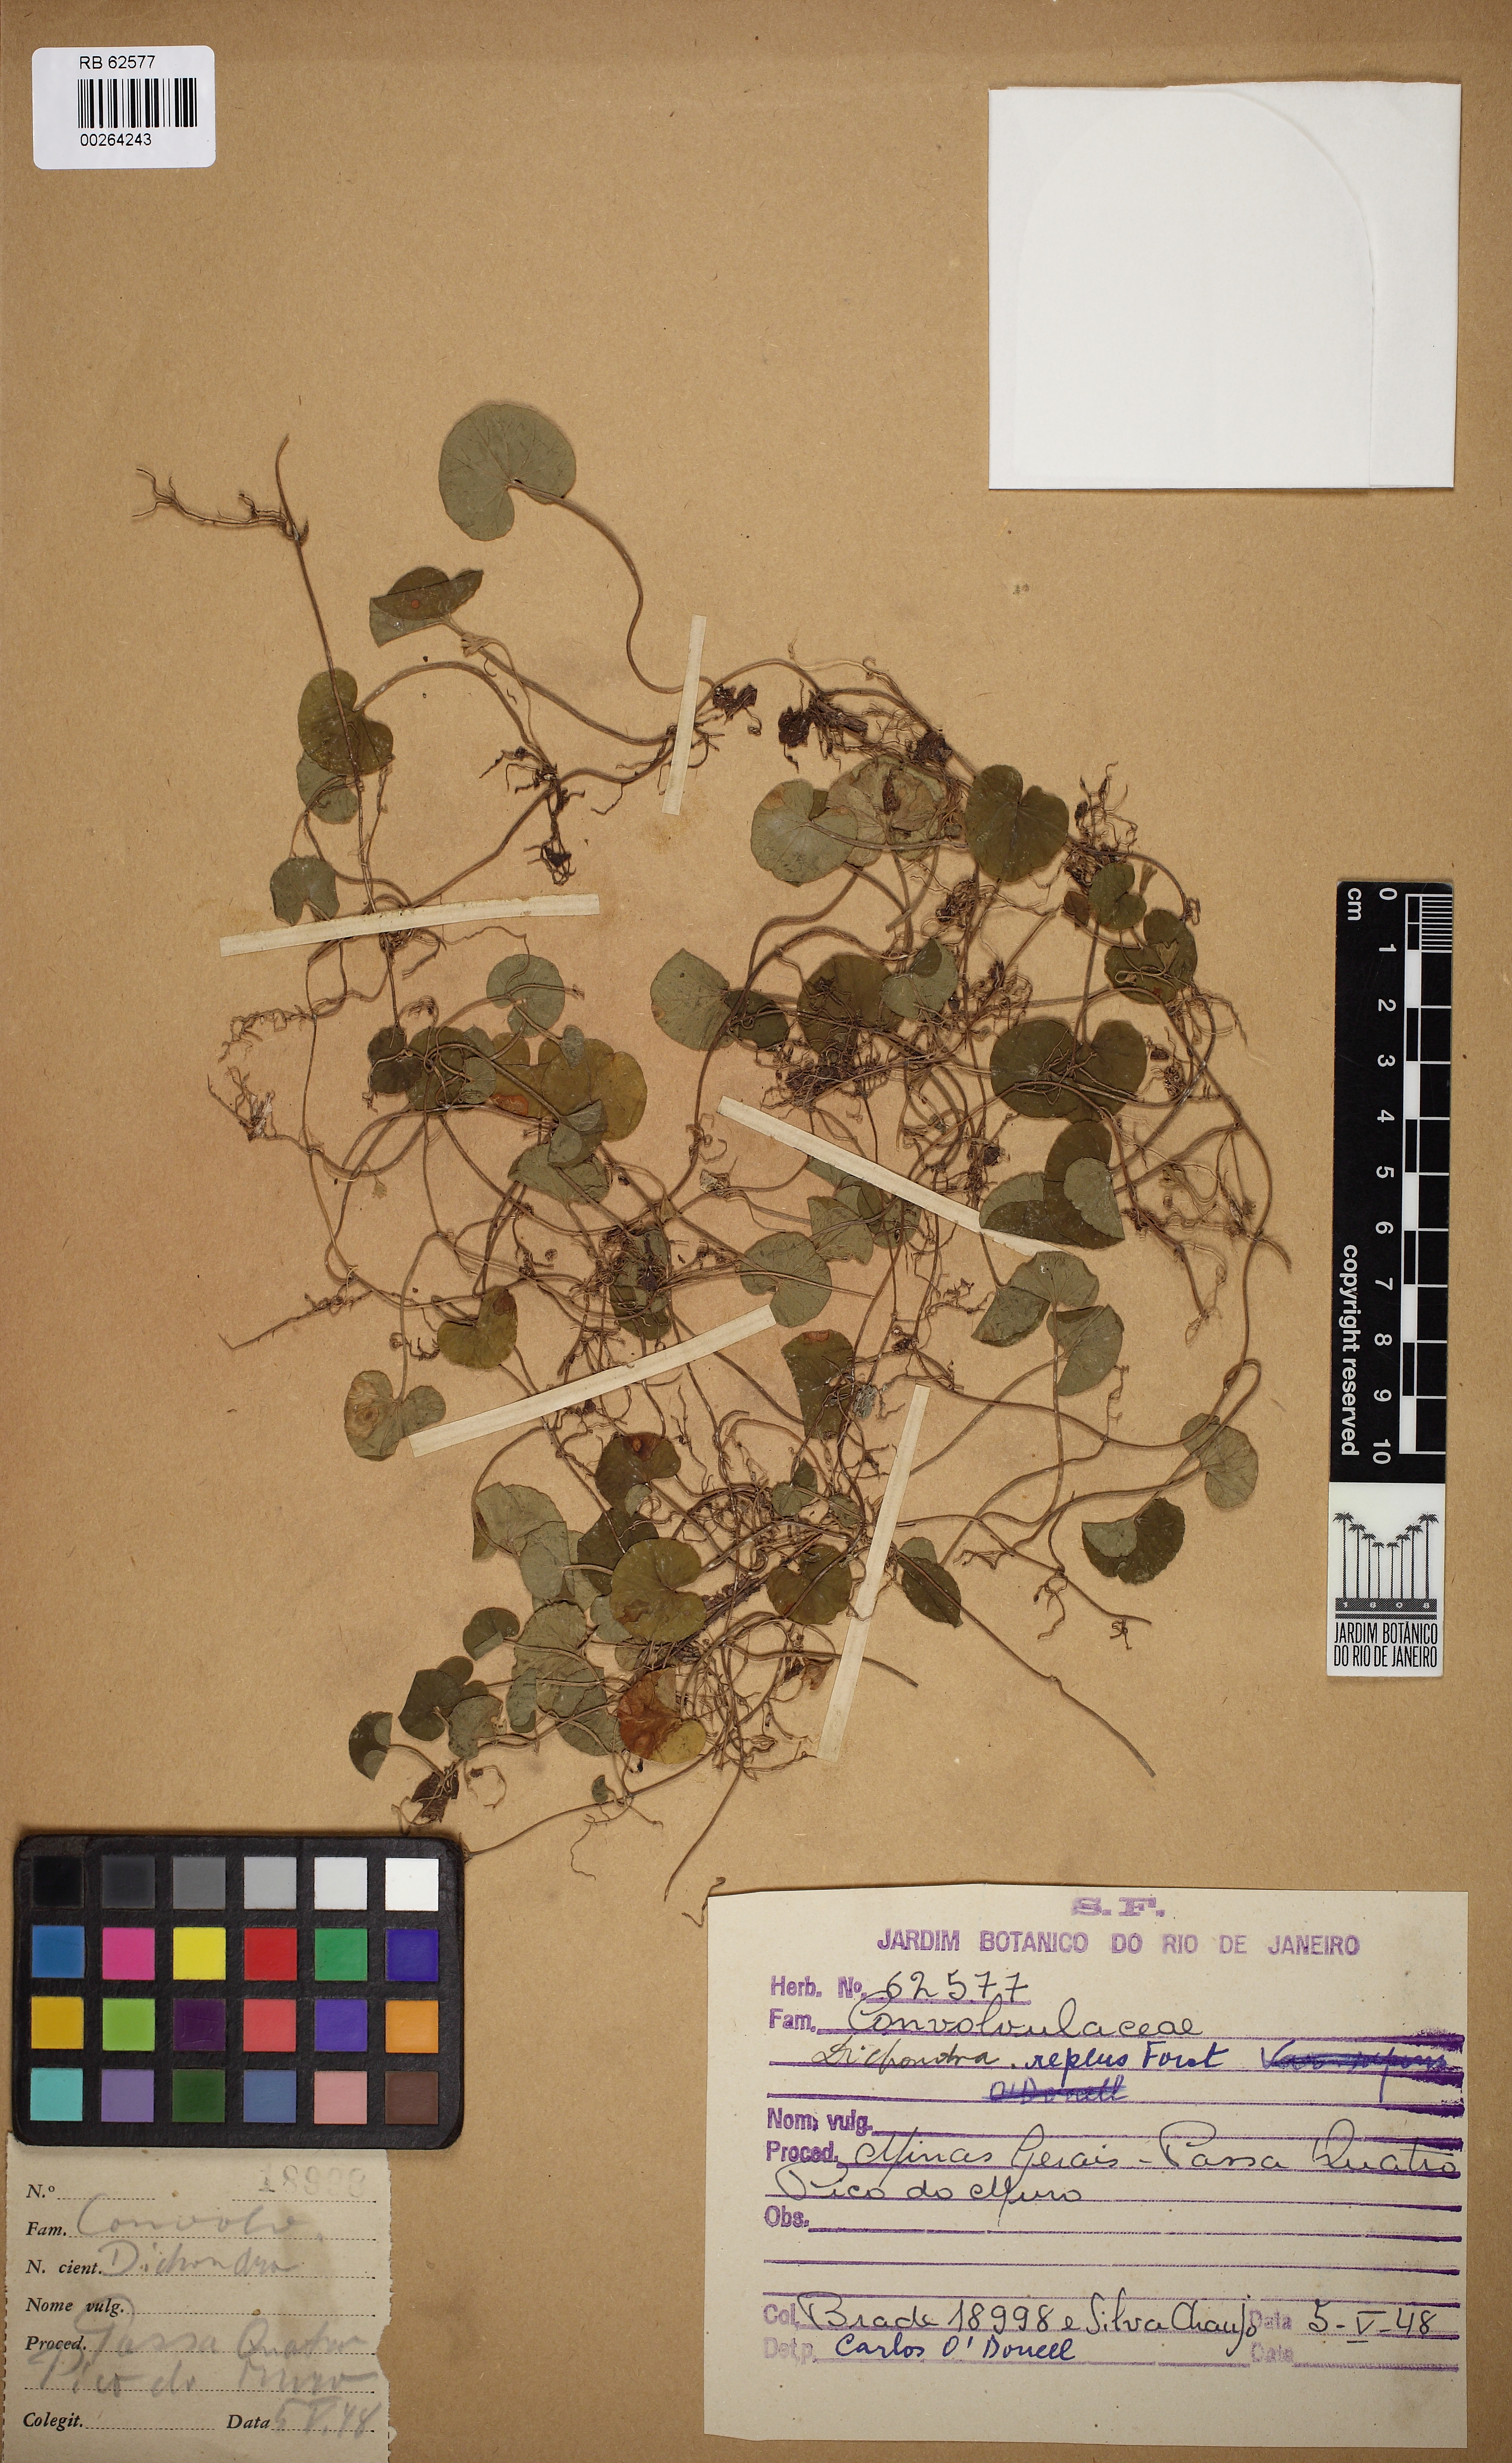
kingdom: Plantae
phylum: Tracheophyta
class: Magnoliopsida
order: Solanales
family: Convolvulaceae
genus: Dichondra
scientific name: Dichondra micrantha
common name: Kidneyweed
